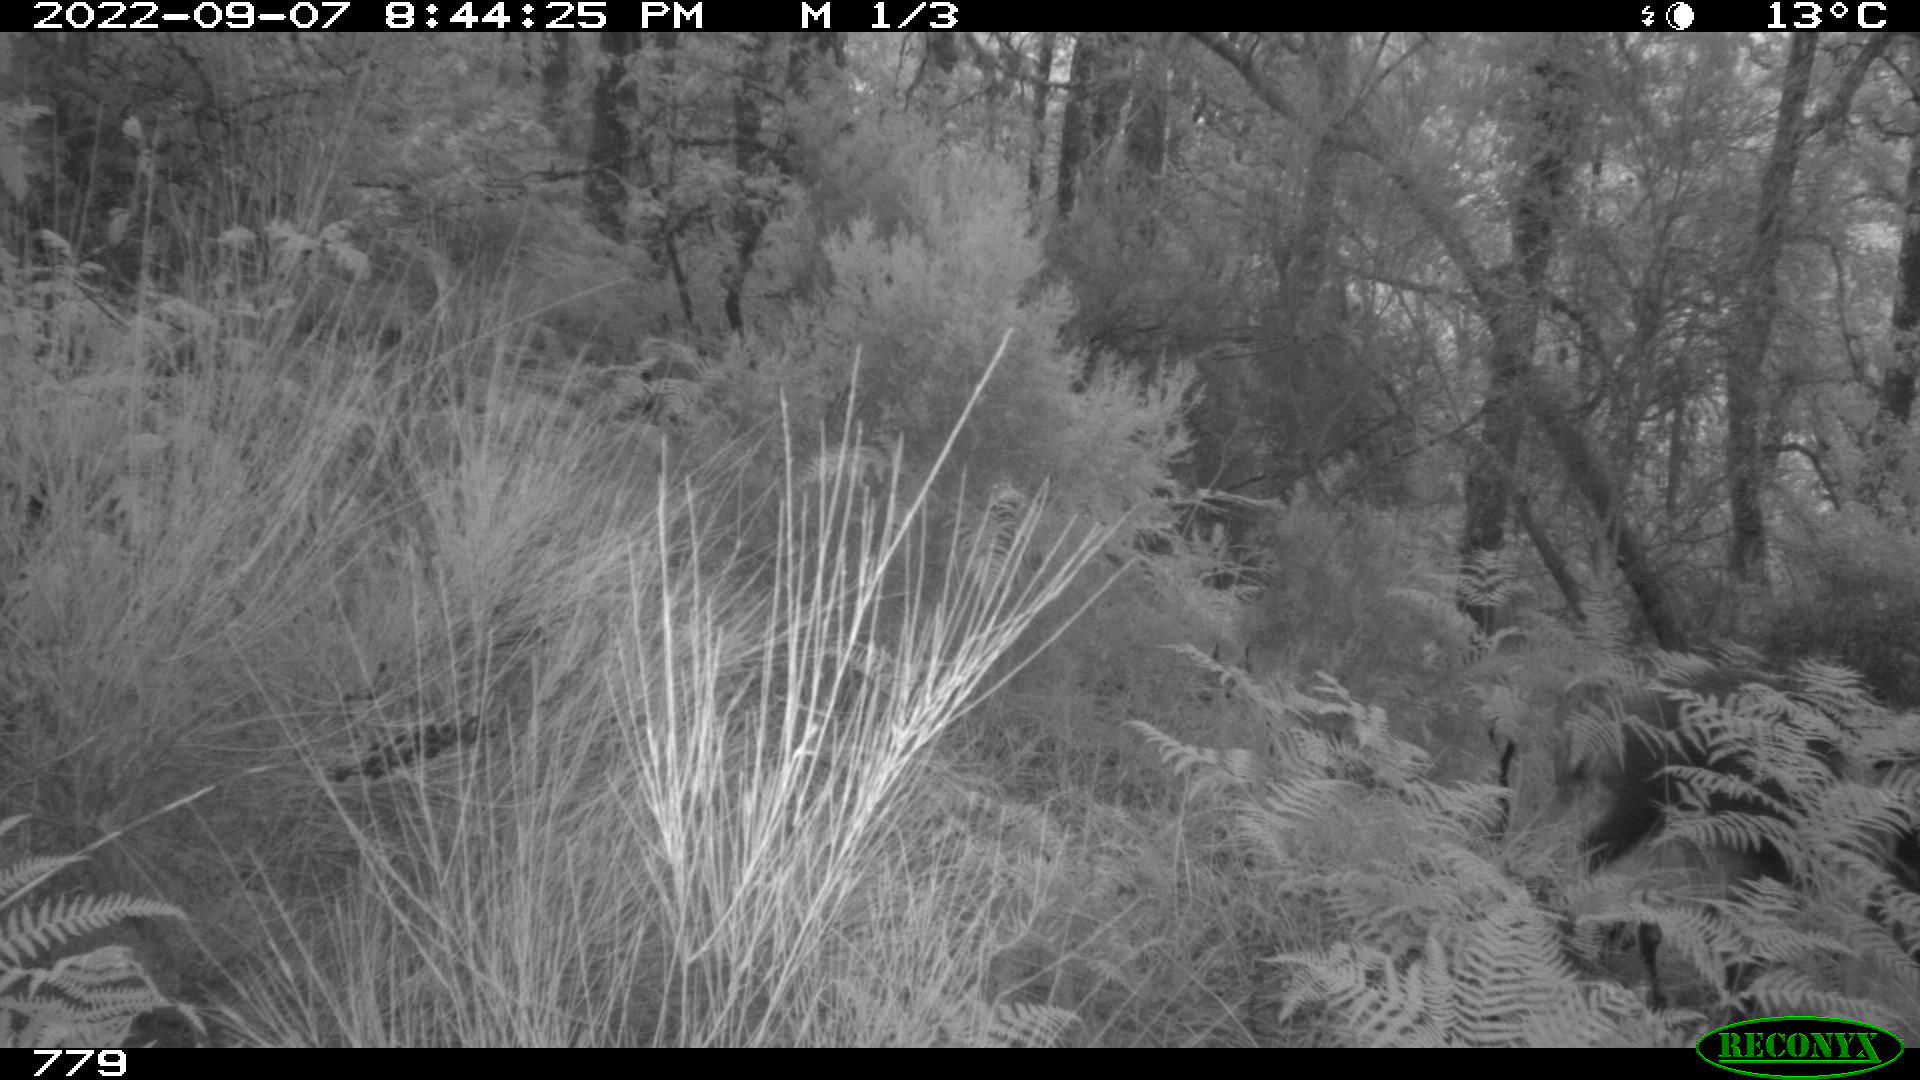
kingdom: Animalia
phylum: Chordata
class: Mammalia
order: Artiodactyla
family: Suidae
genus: Sus
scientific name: Sus scrofa
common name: Wild boar
